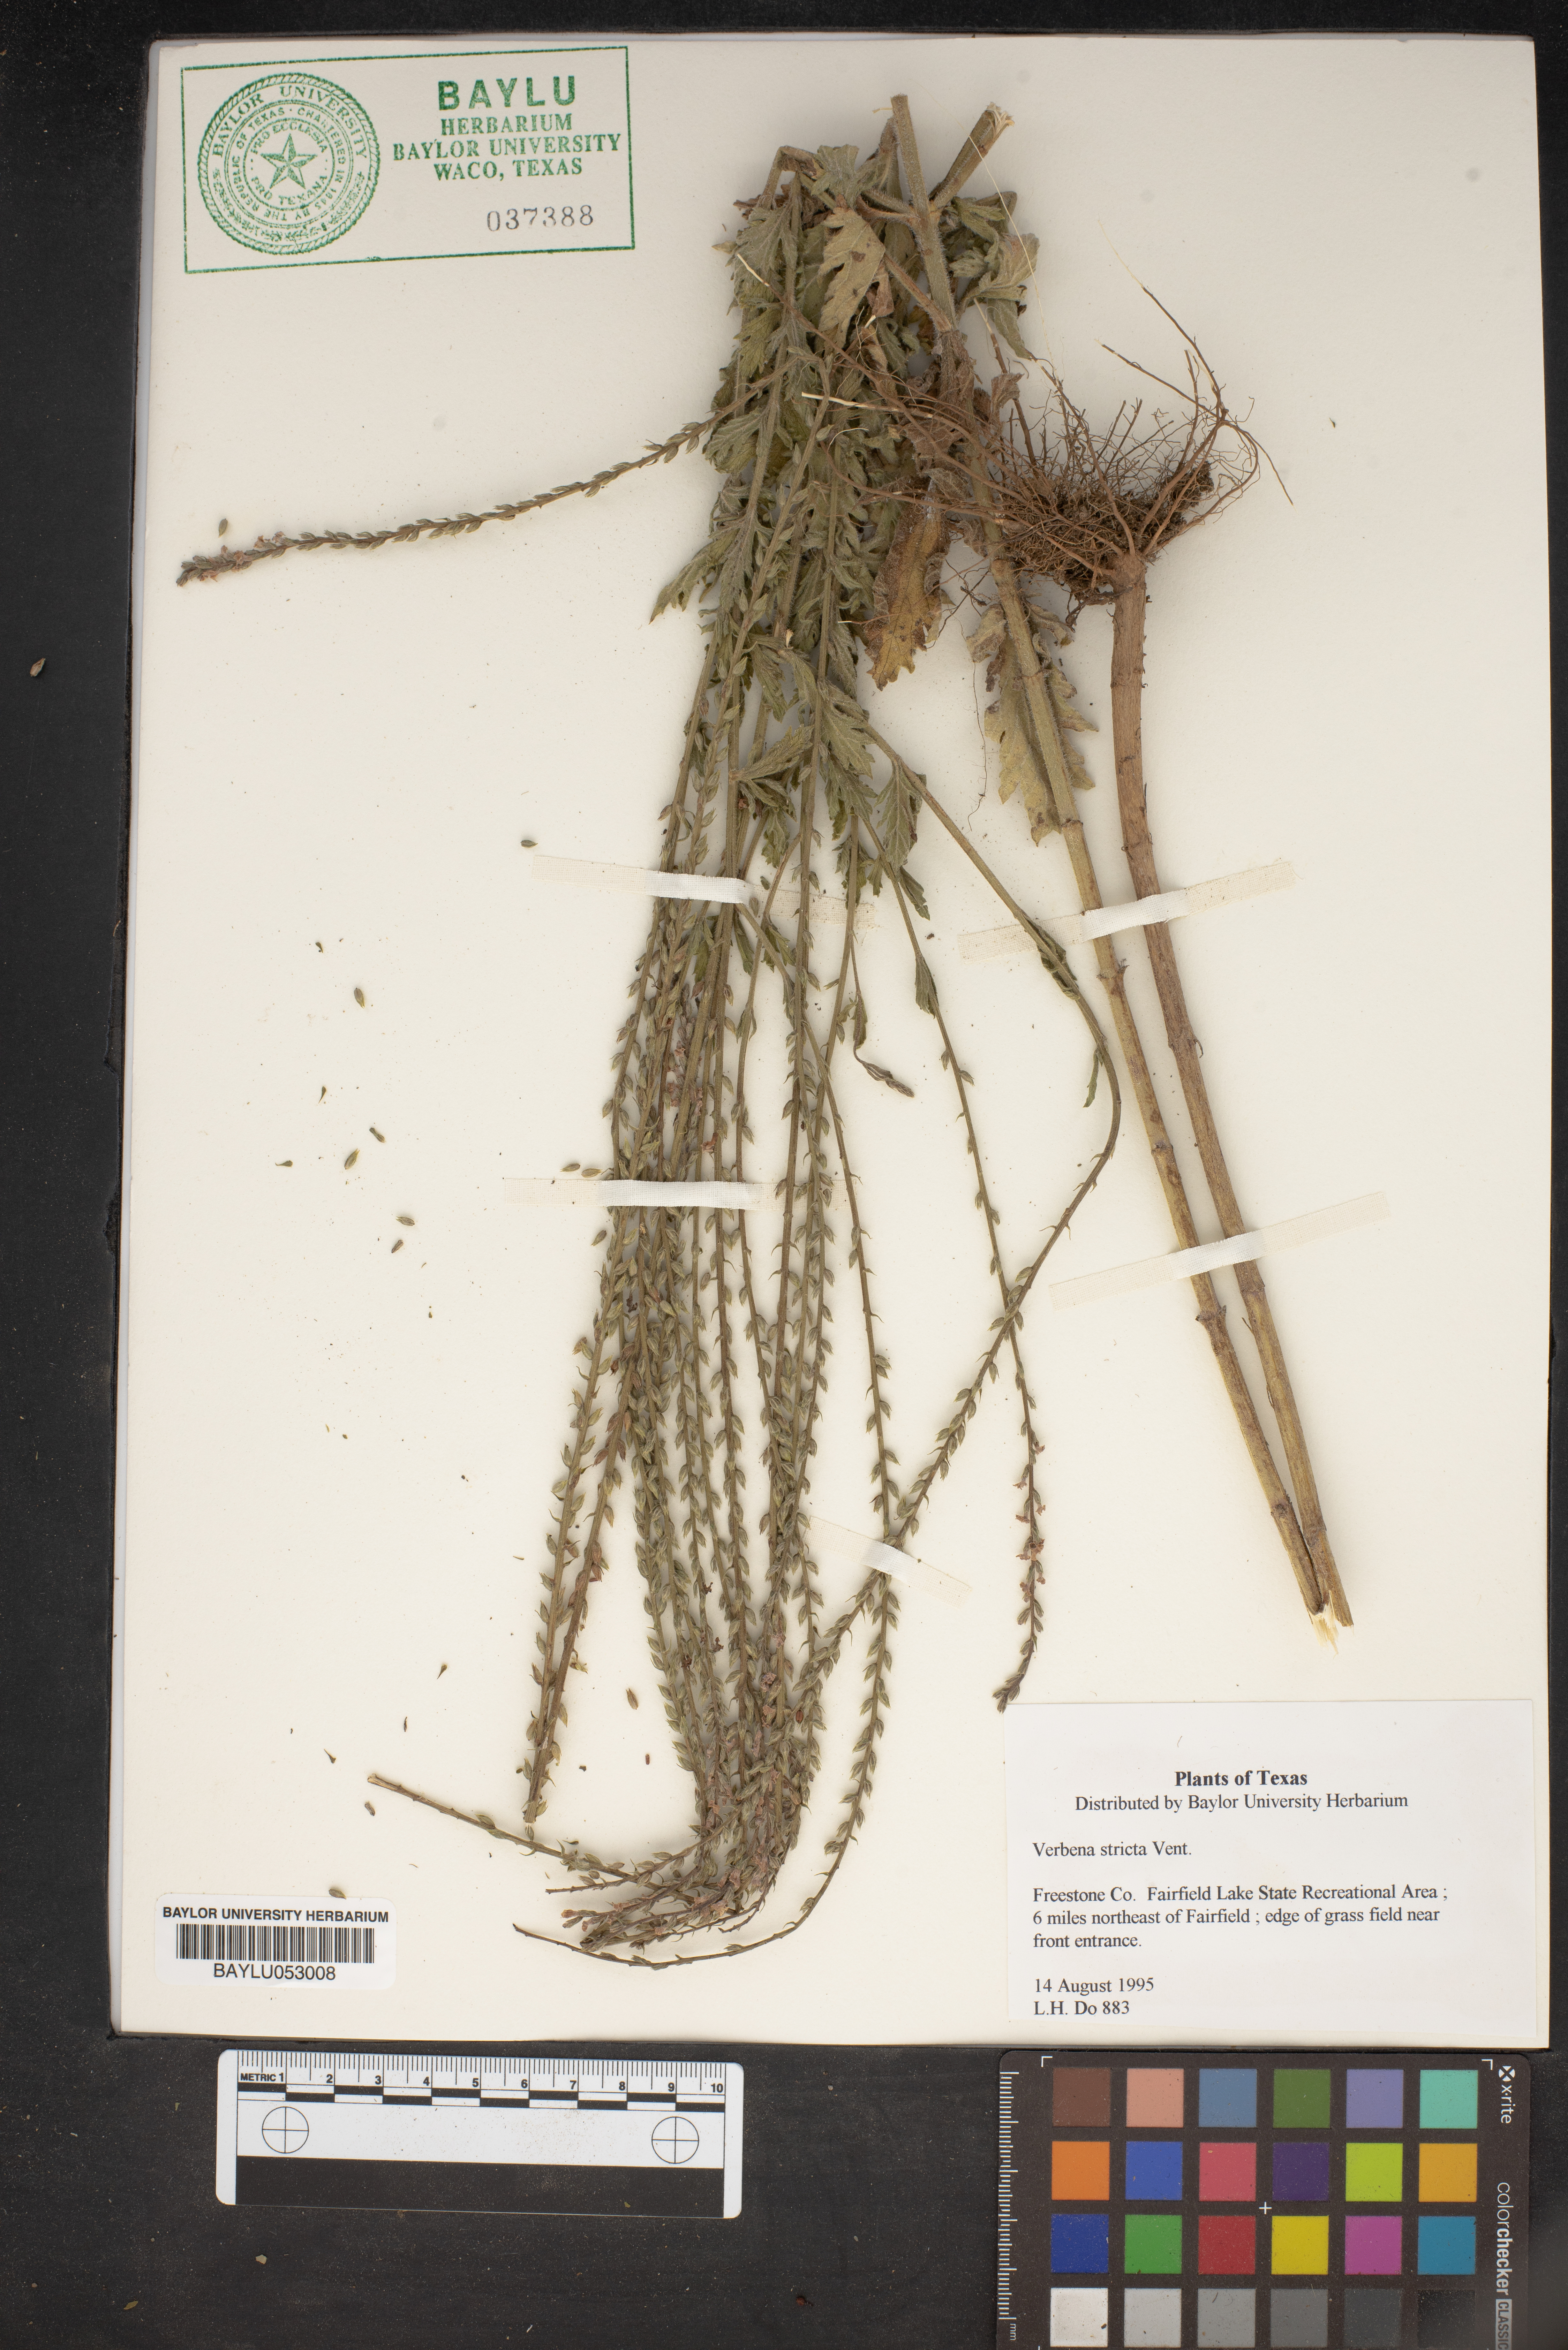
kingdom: Plantae
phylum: Tracheophyta
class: Magnoliopsida
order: Lamiales
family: Verbenaceae
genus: Verbena
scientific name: Verbena stricta
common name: Hoary vervain
